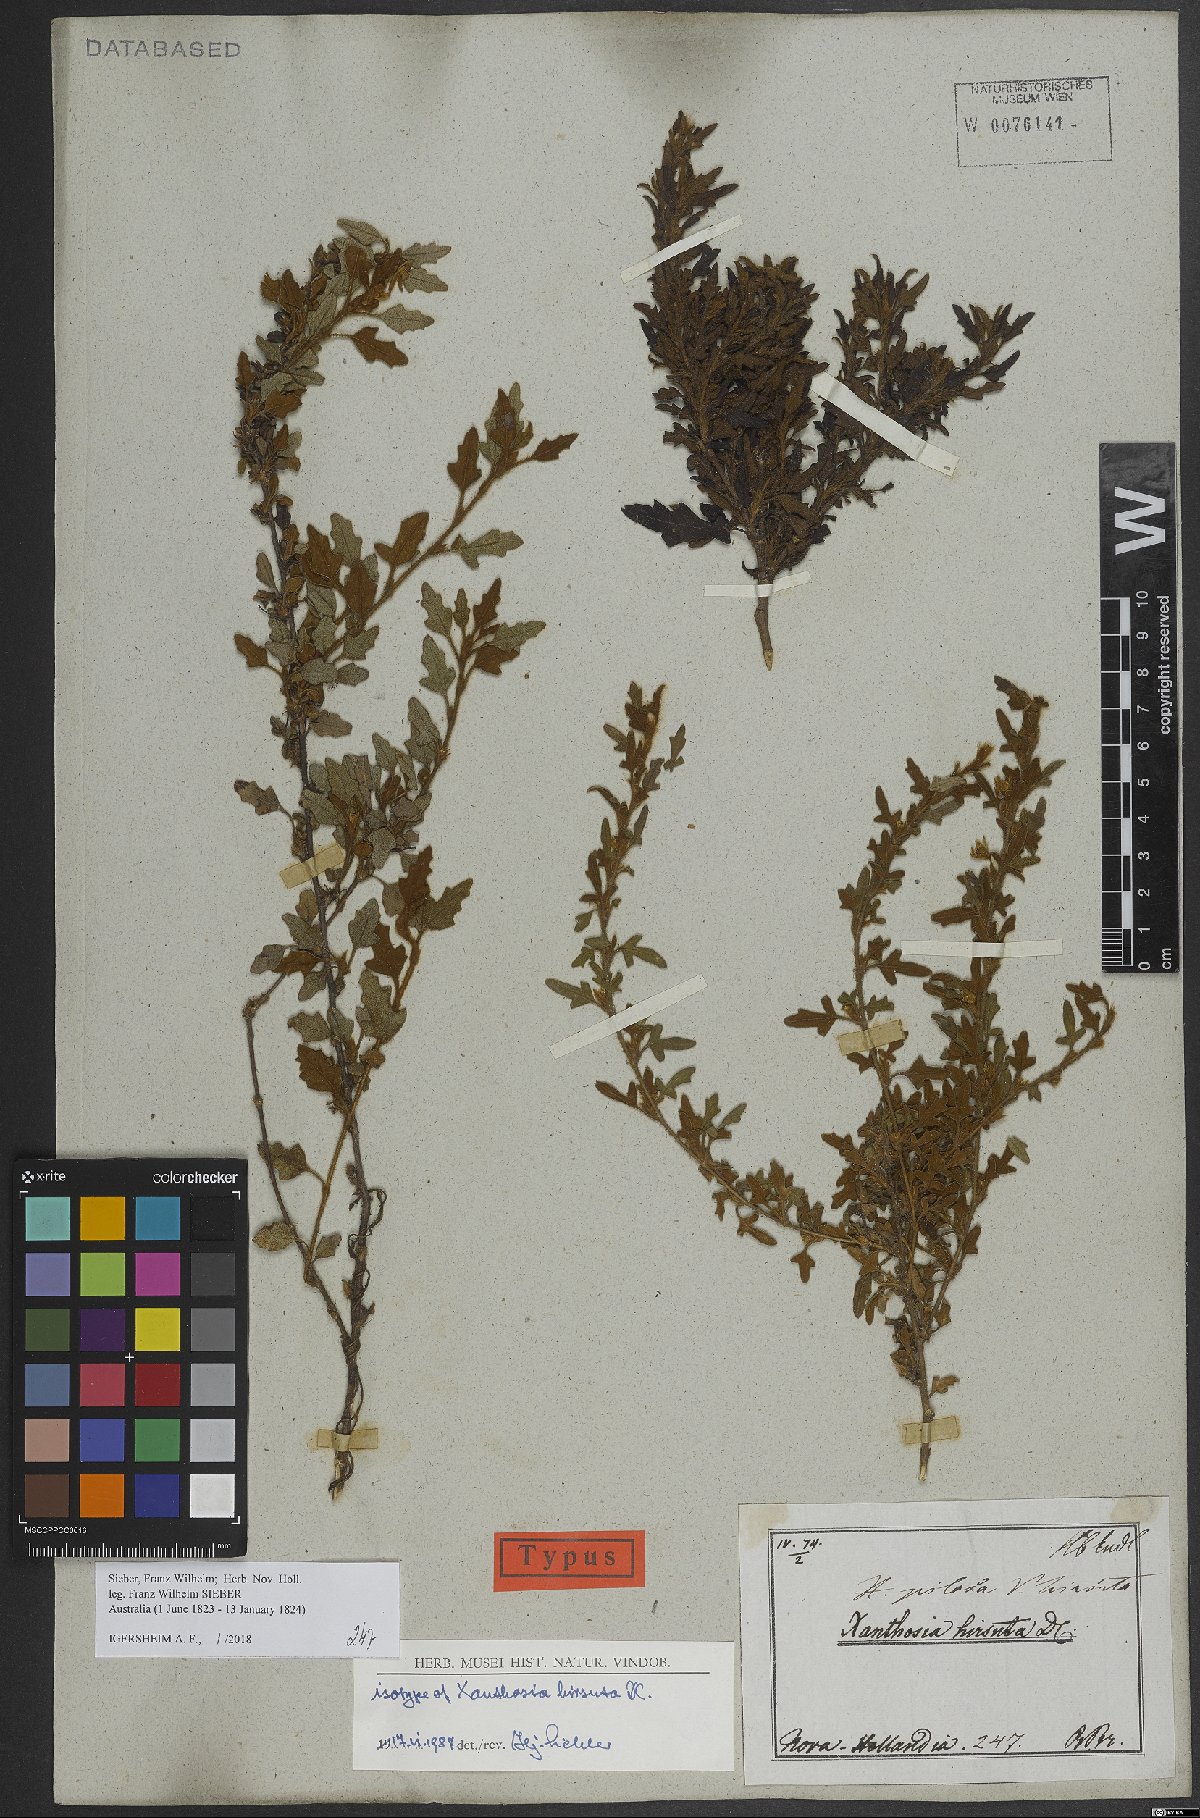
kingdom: Plantae
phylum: Tracheophyta
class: Magnoliopsida
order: Apiales
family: Apiaceae
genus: Xanthosia
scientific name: Xanthosia pilosa
